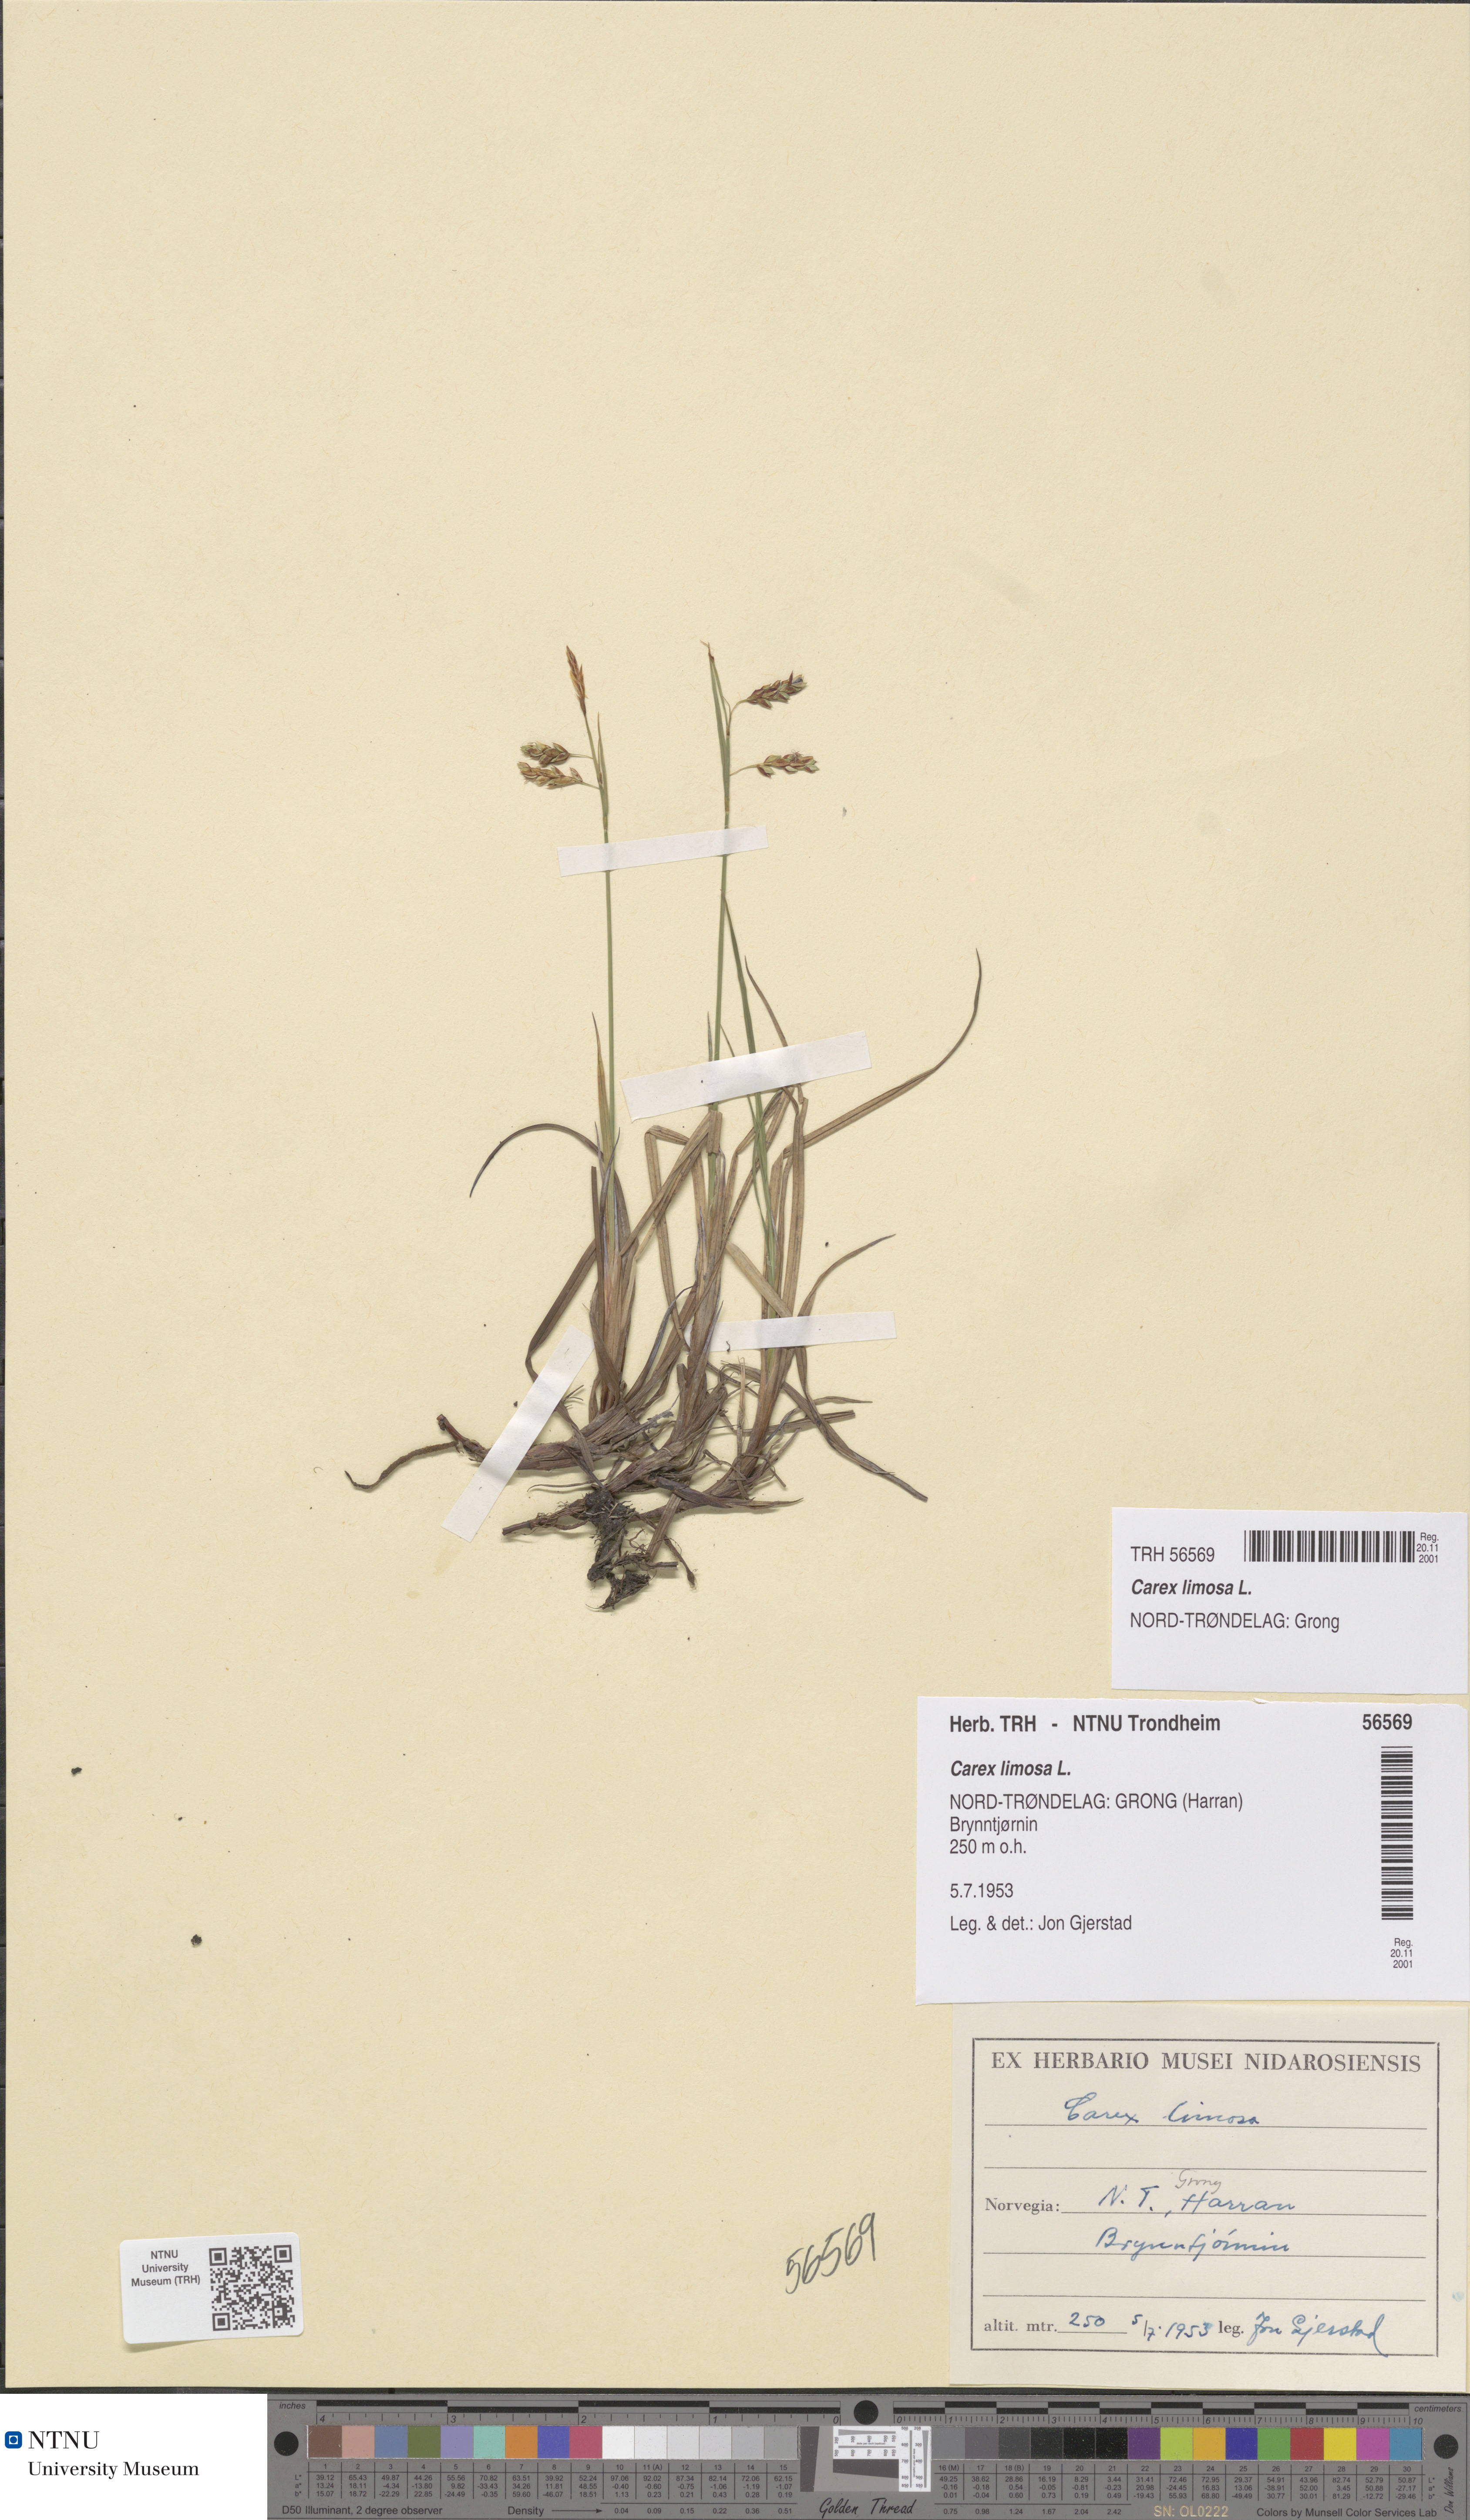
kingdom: Plantae
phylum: Tracheophyta
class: Liliopsida
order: Poales
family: Cyperaceae
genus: Carex
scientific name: Carex limosa
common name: Bog sedge
